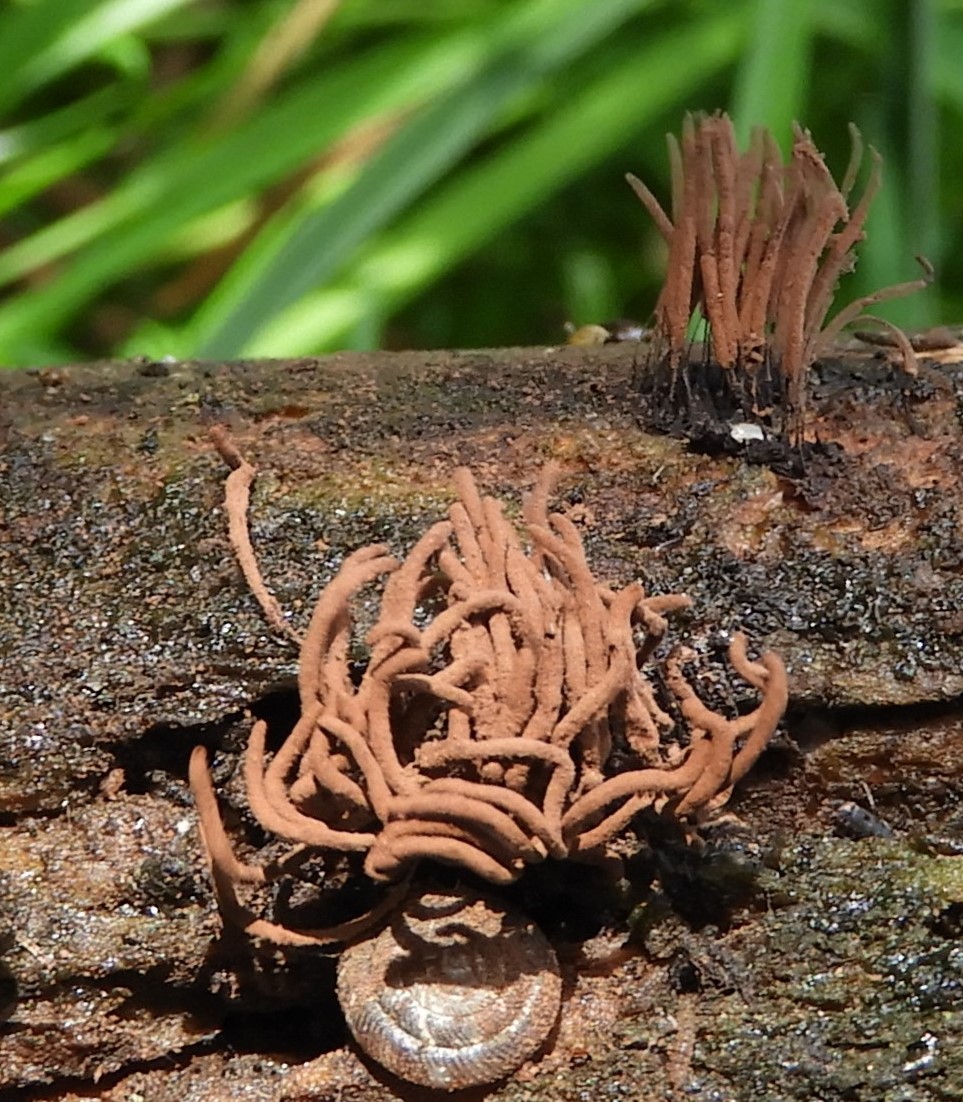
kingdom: Protozoa
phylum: Mycetozoa
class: Myxomycetes
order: Stemonitidales
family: Stemonitidaceae
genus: Stemonitis
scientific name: Stemonitis axifera
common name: rødbrun støvkølle
